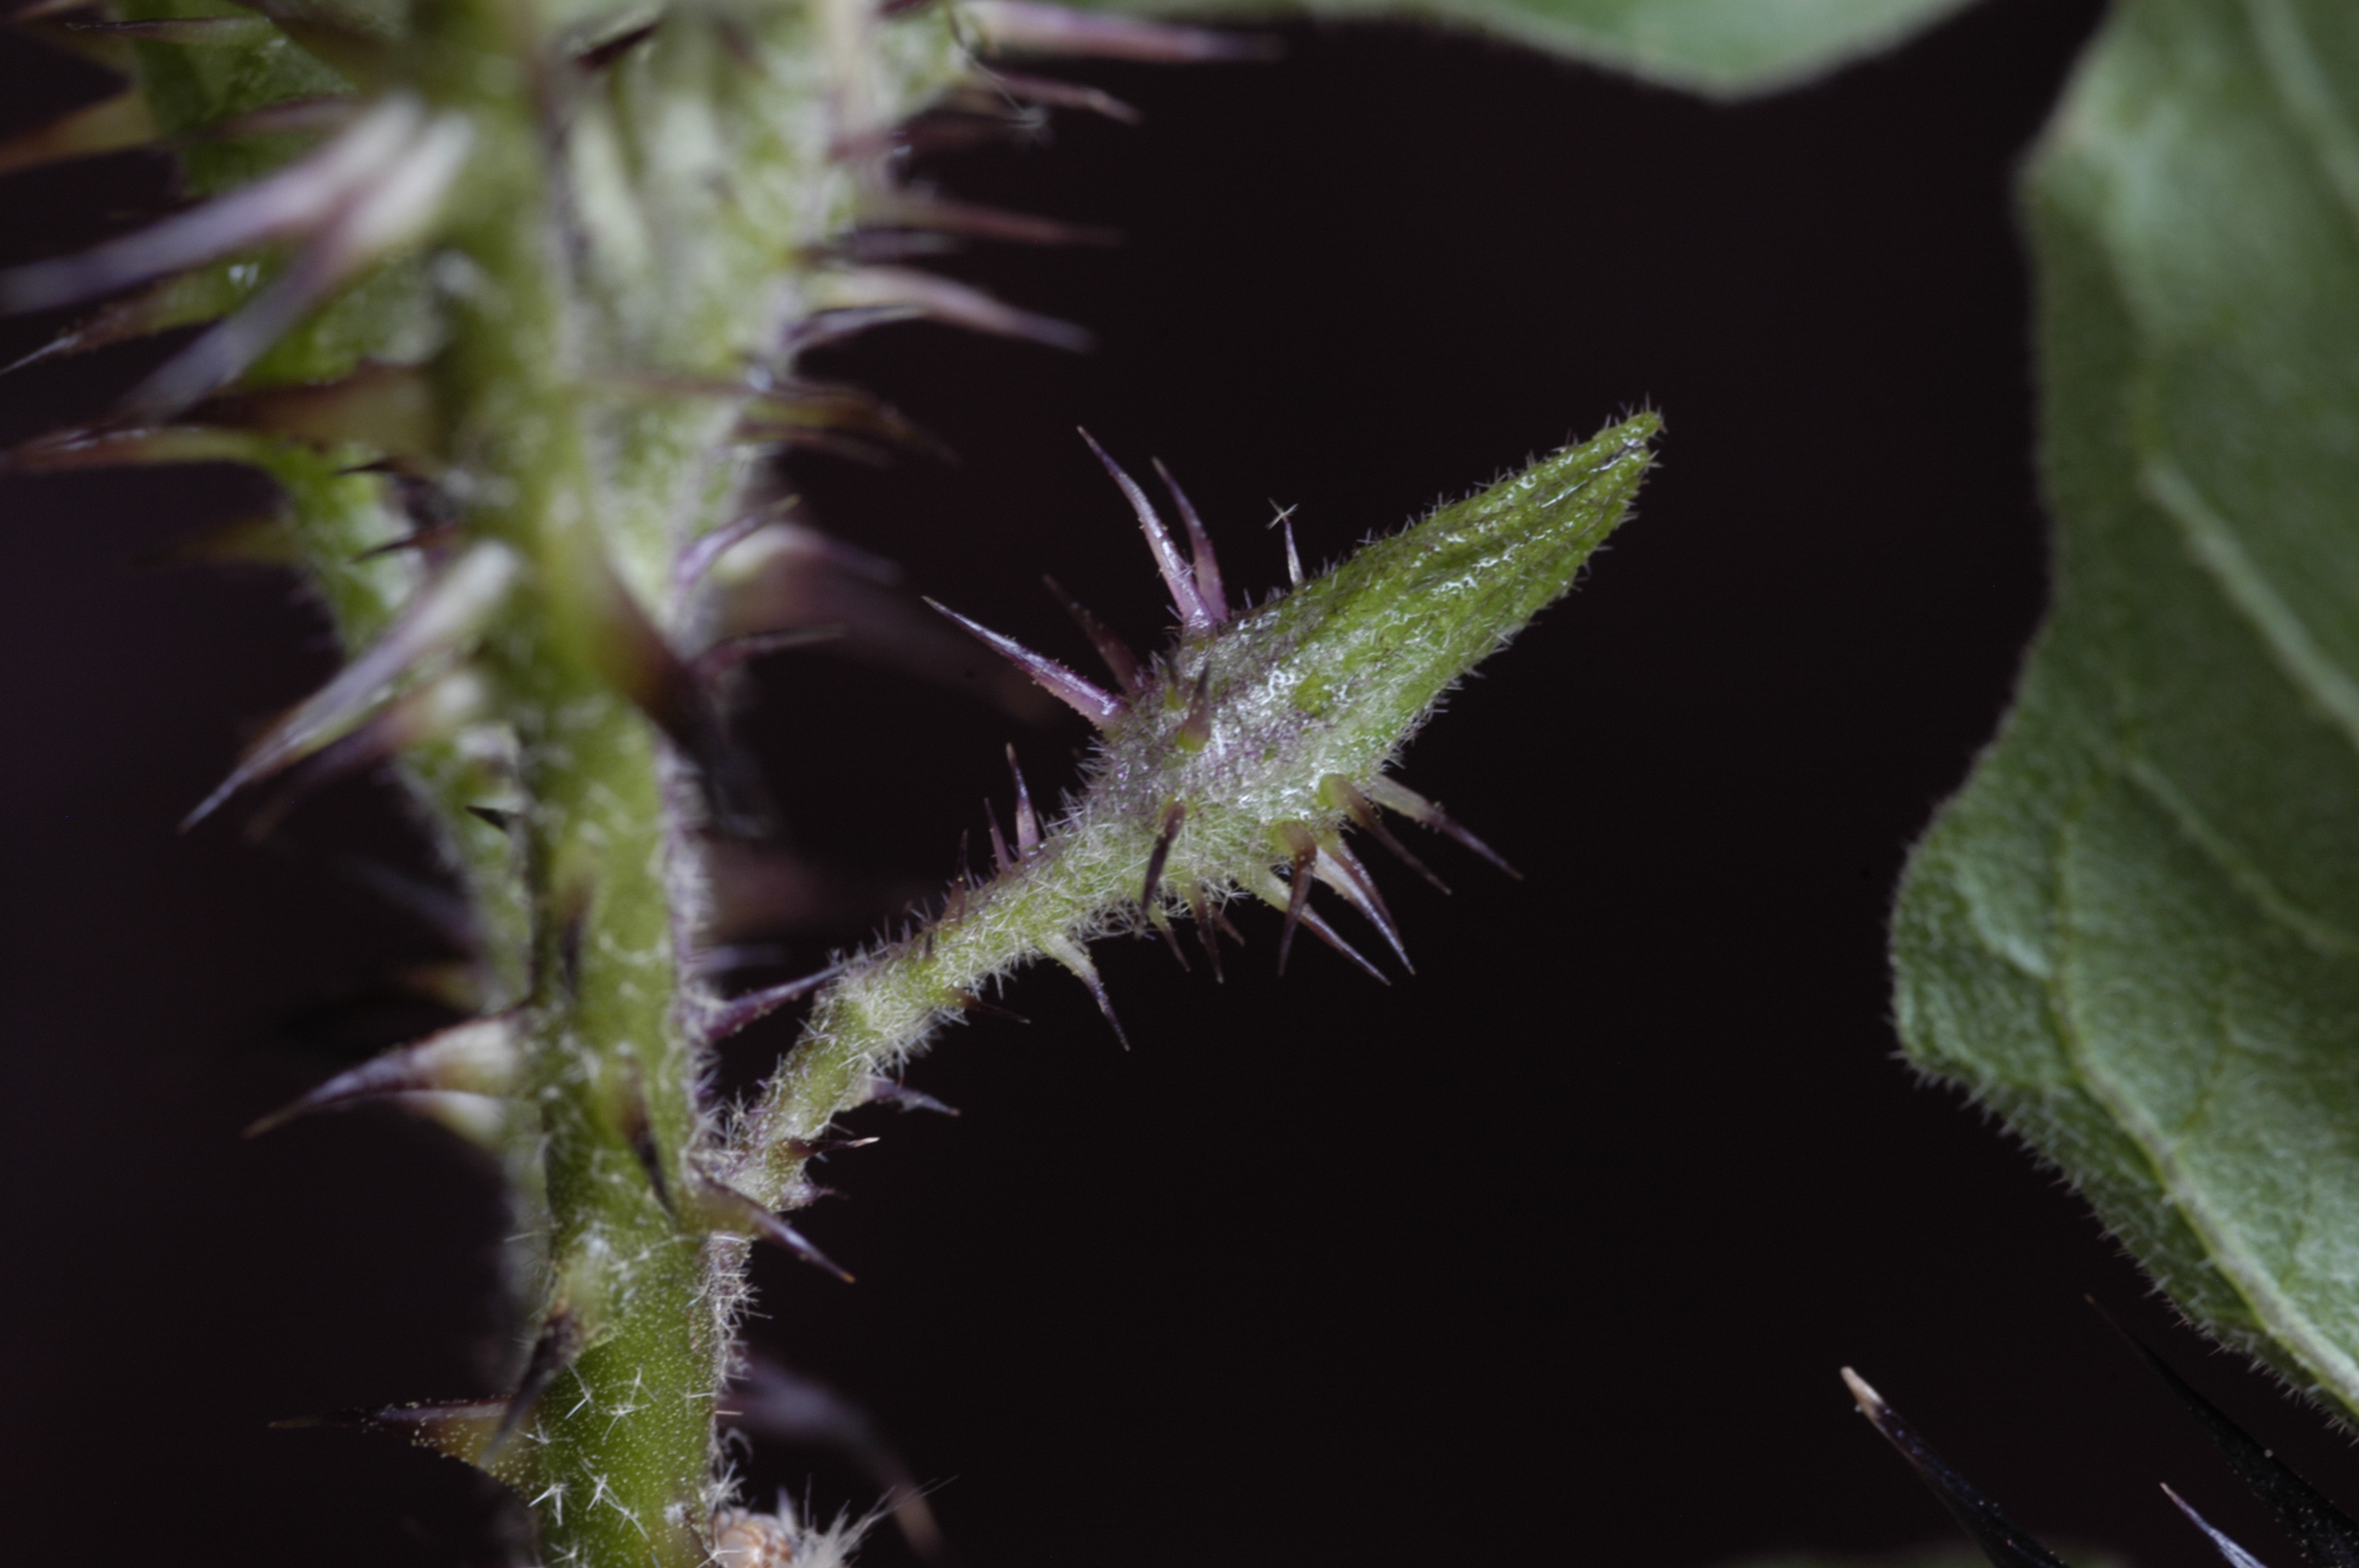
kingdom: Plantae
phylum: Tracheophyta
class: Magnoliopsida
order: Solanales
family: Solanaceae
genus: Solanum
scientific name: Solanum insanum
